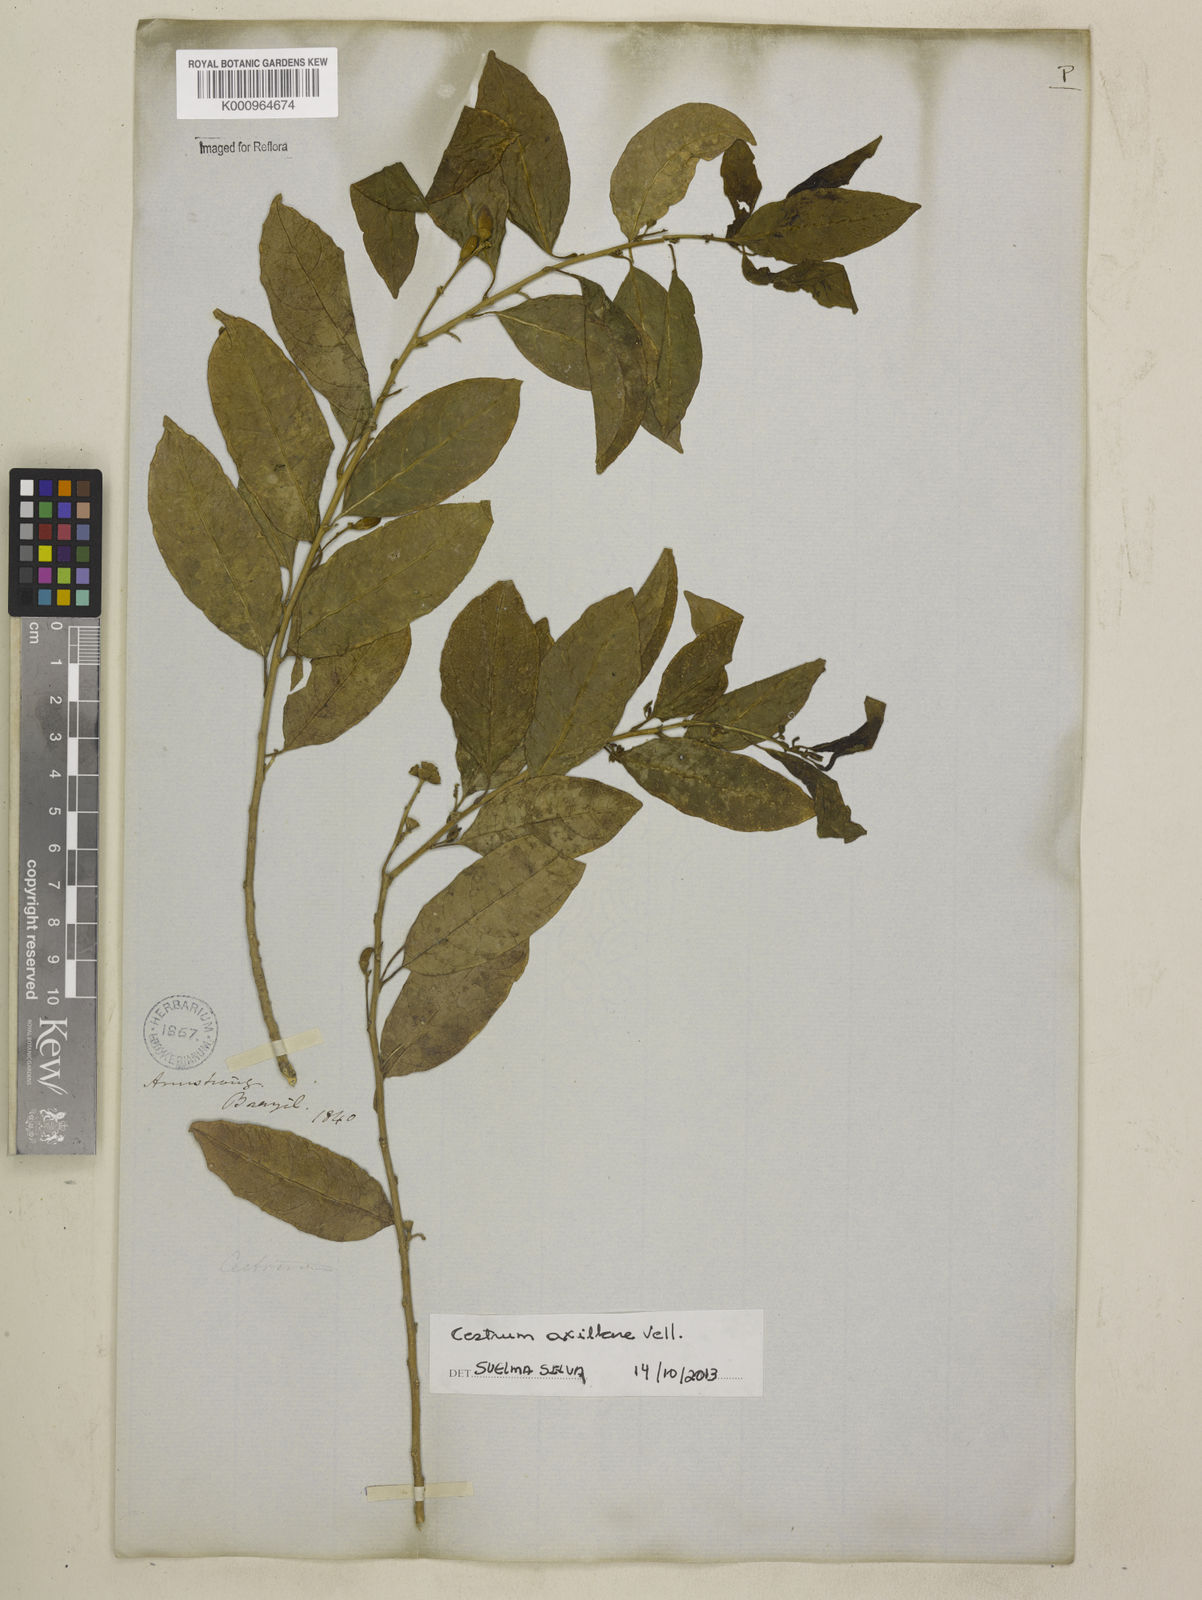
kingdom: Plantae
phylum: Tracheophyta
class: Magnoliopsida
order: Solanales
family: Solanaceae
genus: Cestrum
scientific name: Cestrum laevigatum
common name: Inkberry
